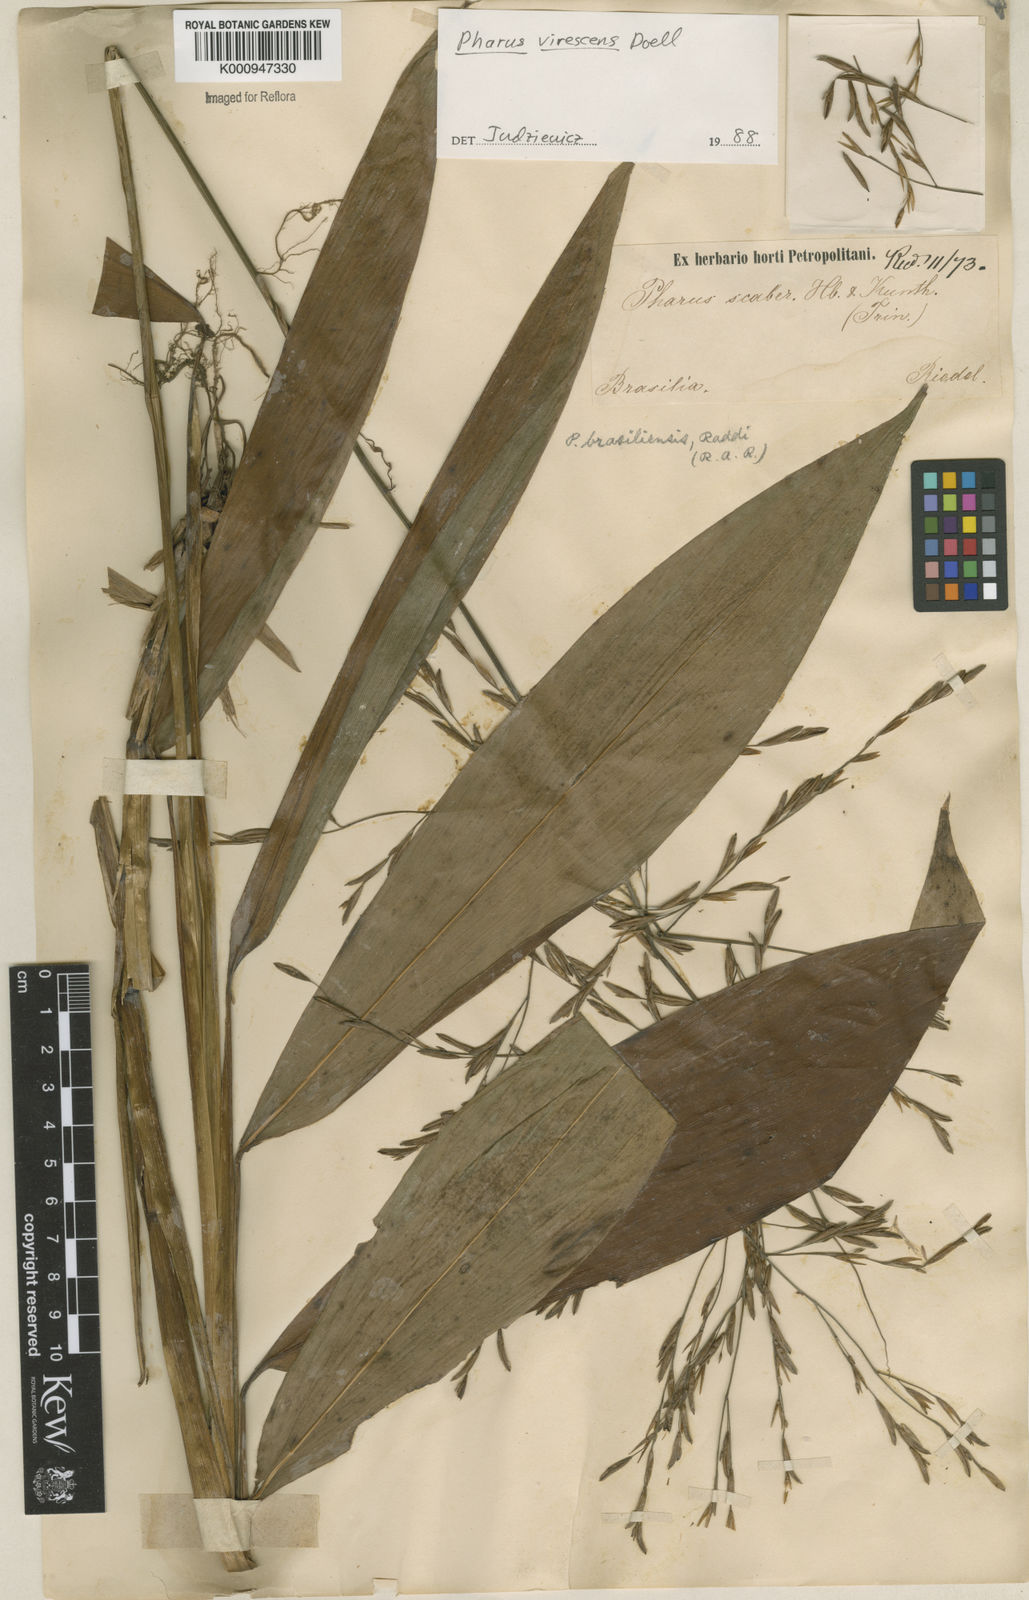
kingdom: Plantae
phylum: Tracheophyta
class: Liliopsida
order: Poales
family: Poaceae
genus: Pharus
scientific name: Pharus
